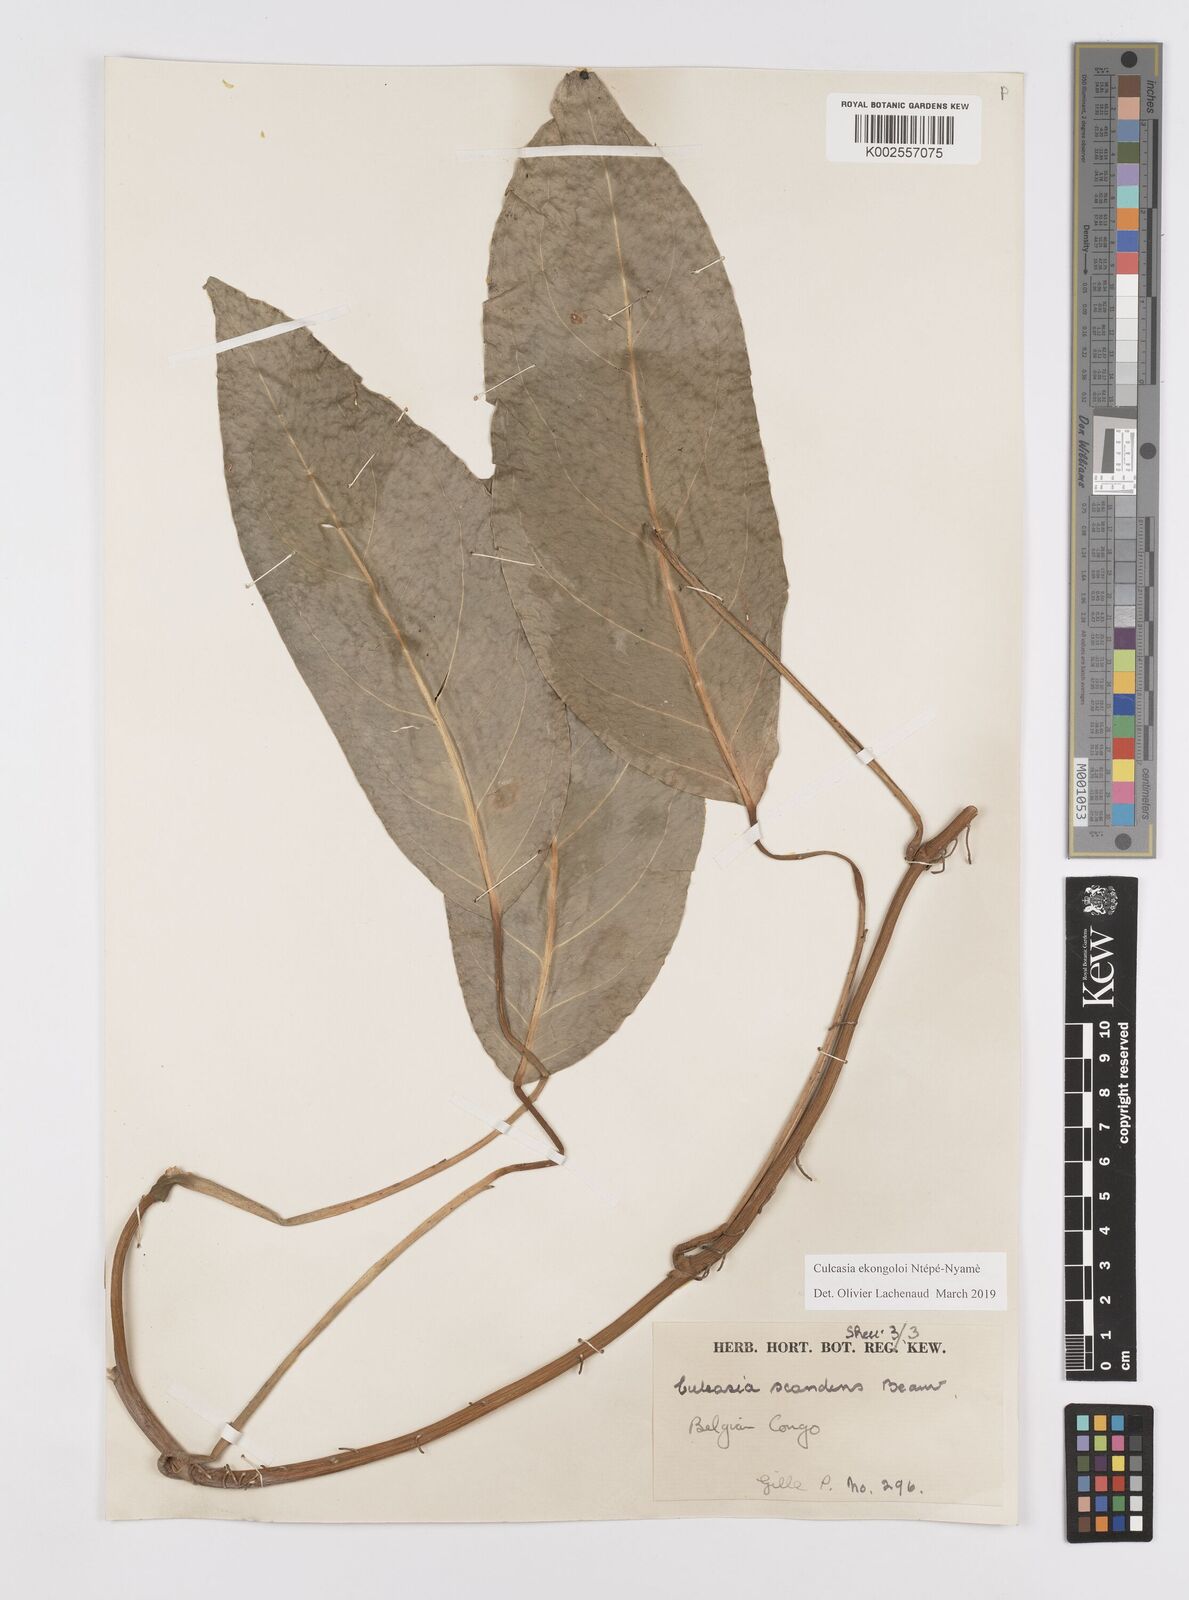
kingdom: Plantae
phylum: Tracheophyta
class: Liliopsida
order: Alismatales
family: Araceae
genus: Culcasia
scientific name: Culcasia ekongoloi
